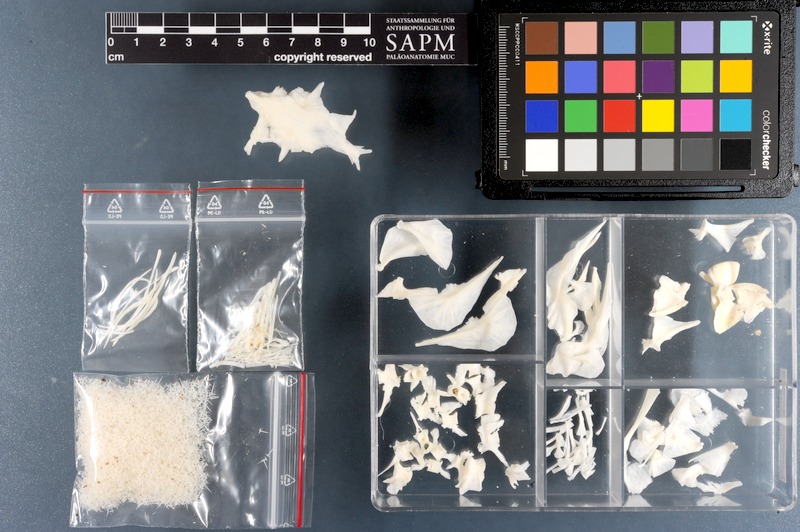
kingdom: Animalia
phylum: Chordata
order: Tetraodontiformes
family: Tetraodontidae
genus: Arothron
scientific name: Arothron nigropunctatus
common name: Black spotted blow fish
